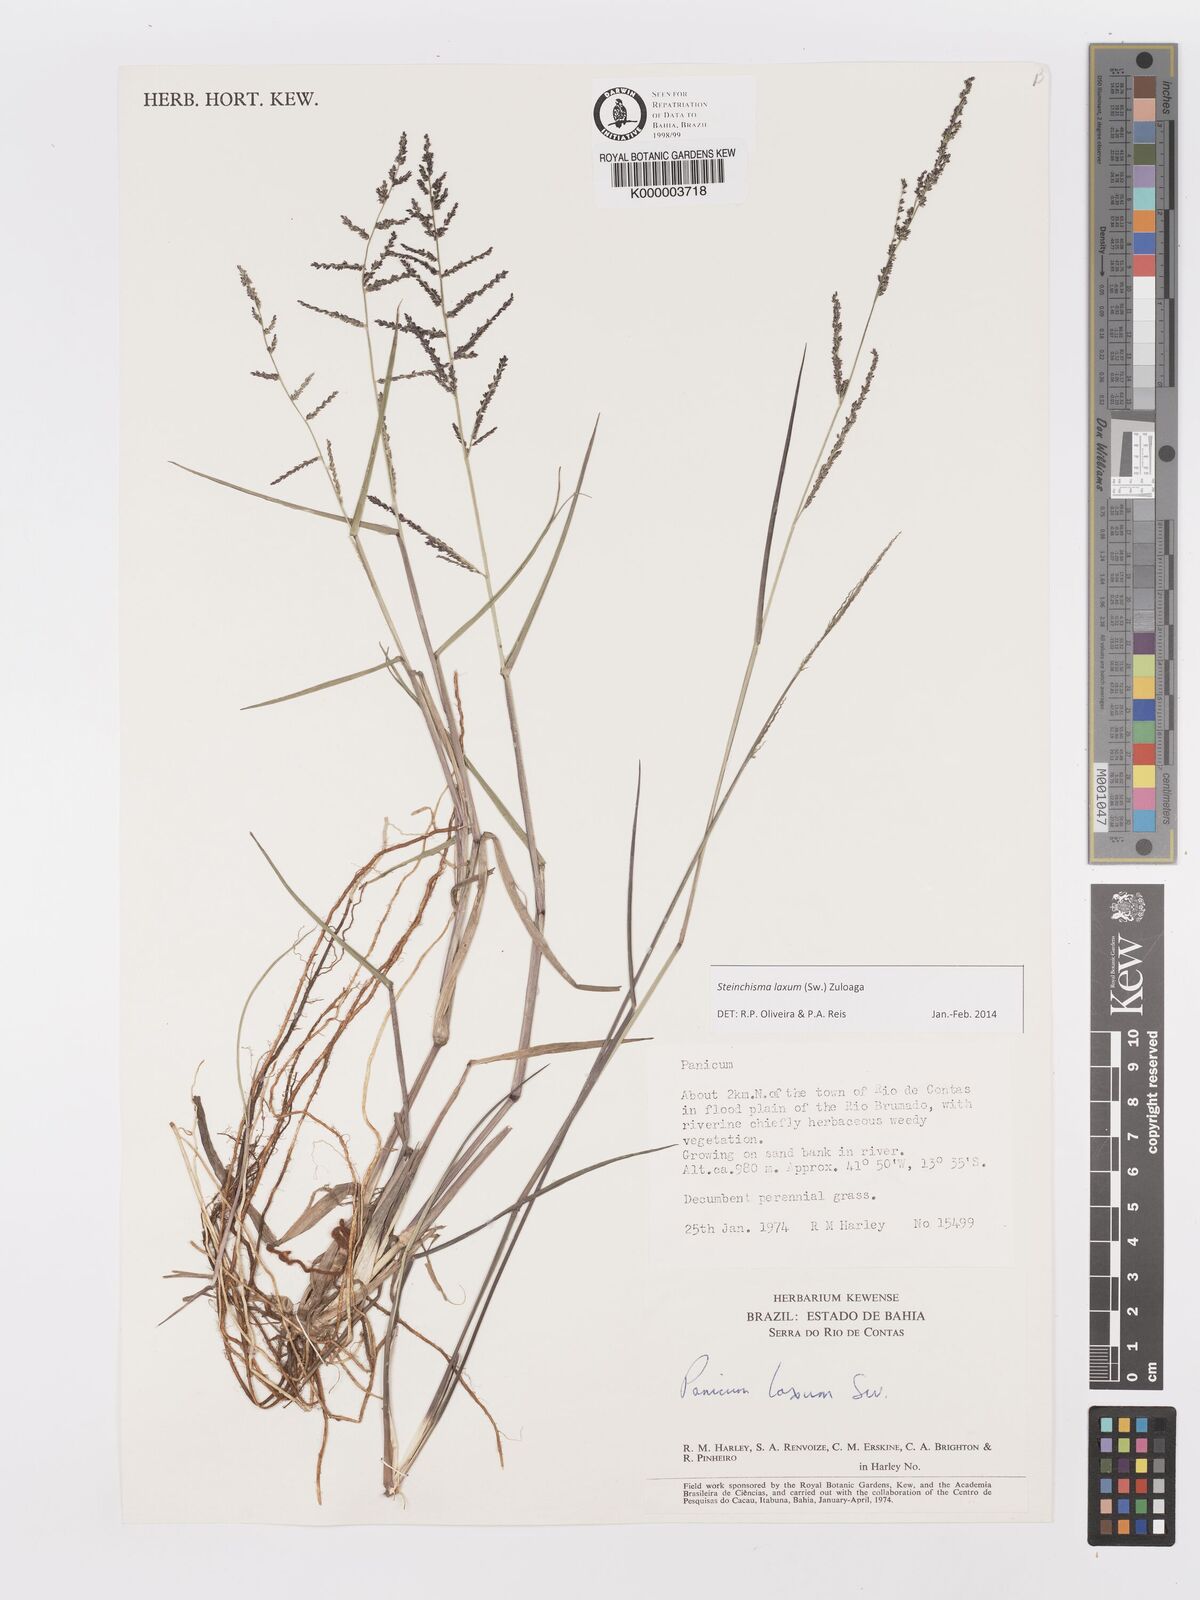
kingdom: Plantae
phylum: Tracheophyta
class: Liliopsida
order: Poales
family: Poaceae
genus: Panicum
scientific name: Panicum
